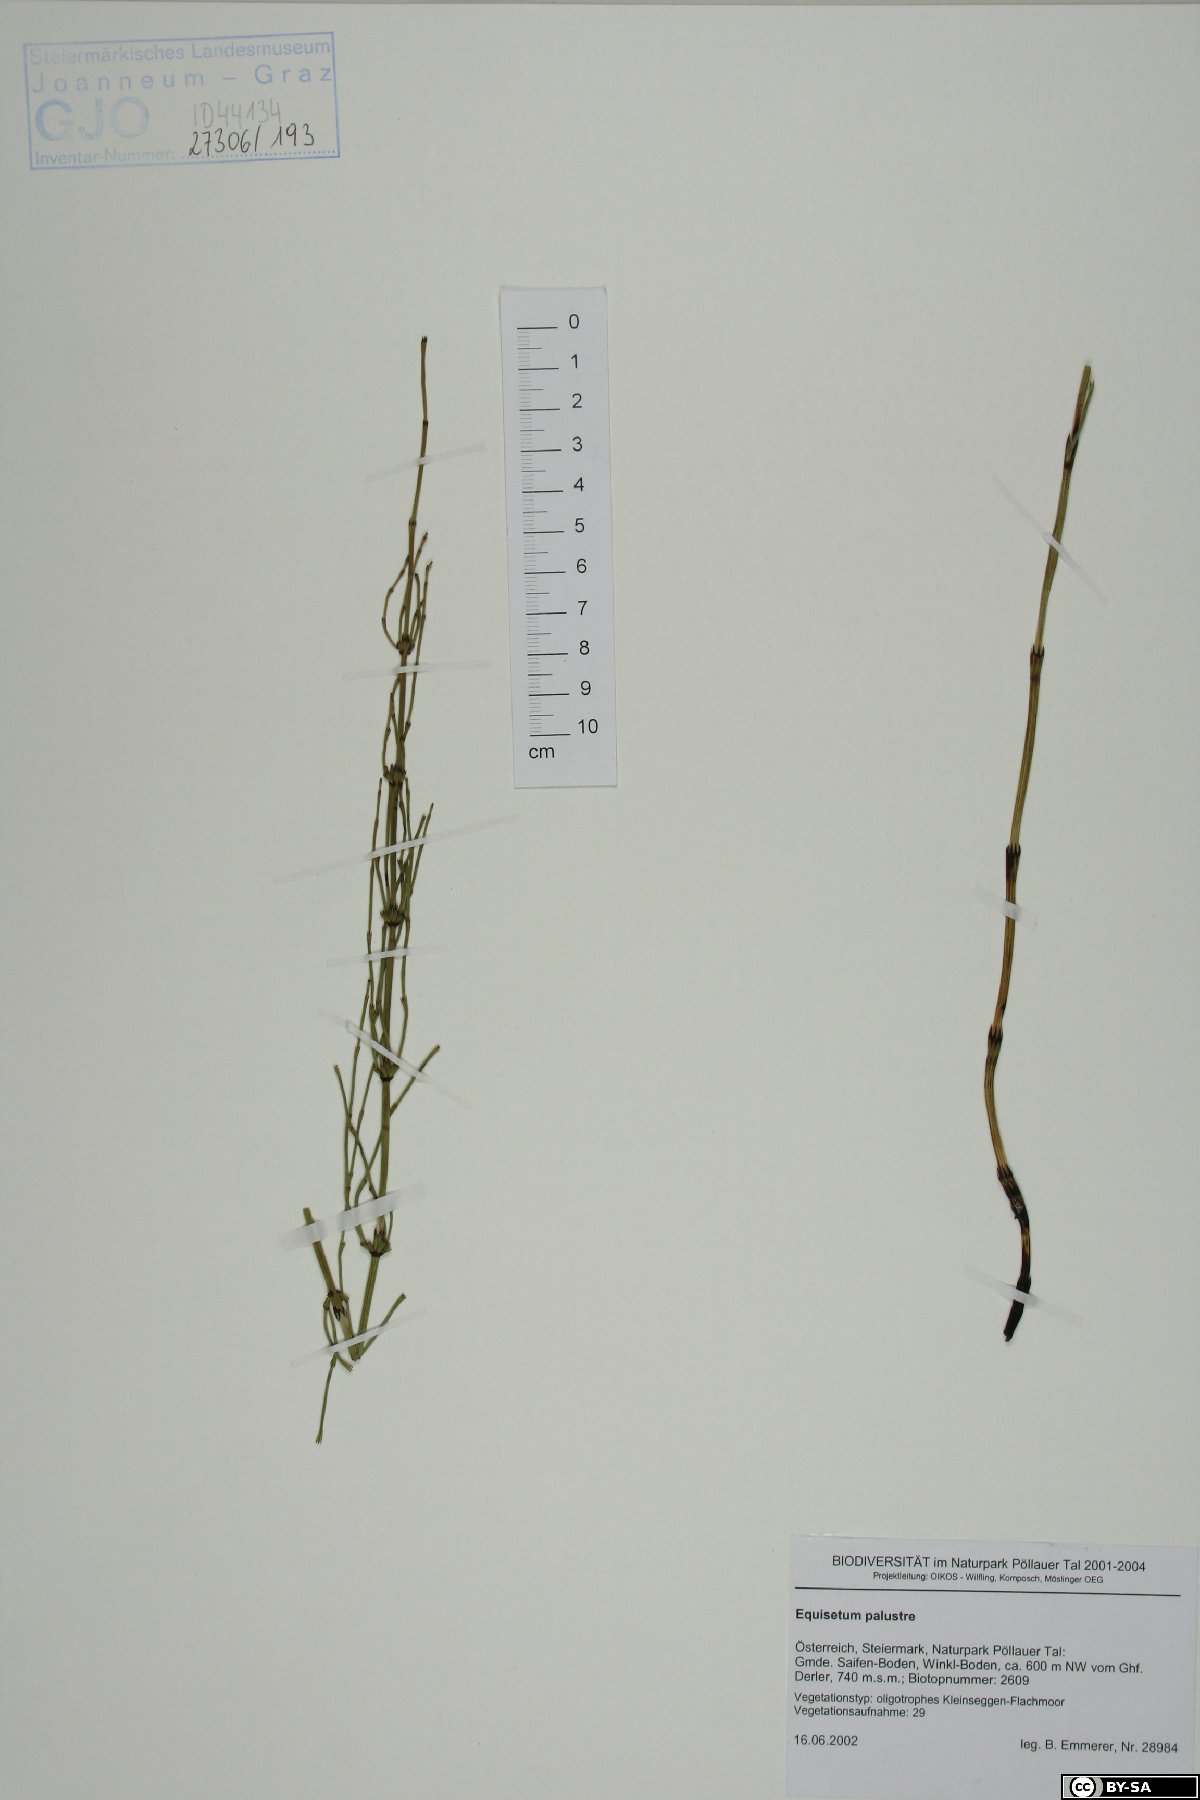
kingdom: Plantae
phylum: Tracheophyta
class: Polypodiopsida
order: Equisetales
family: Equisetaceae
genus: Equisetum
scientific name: Equisetum palustre
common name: Marsh horsetail
